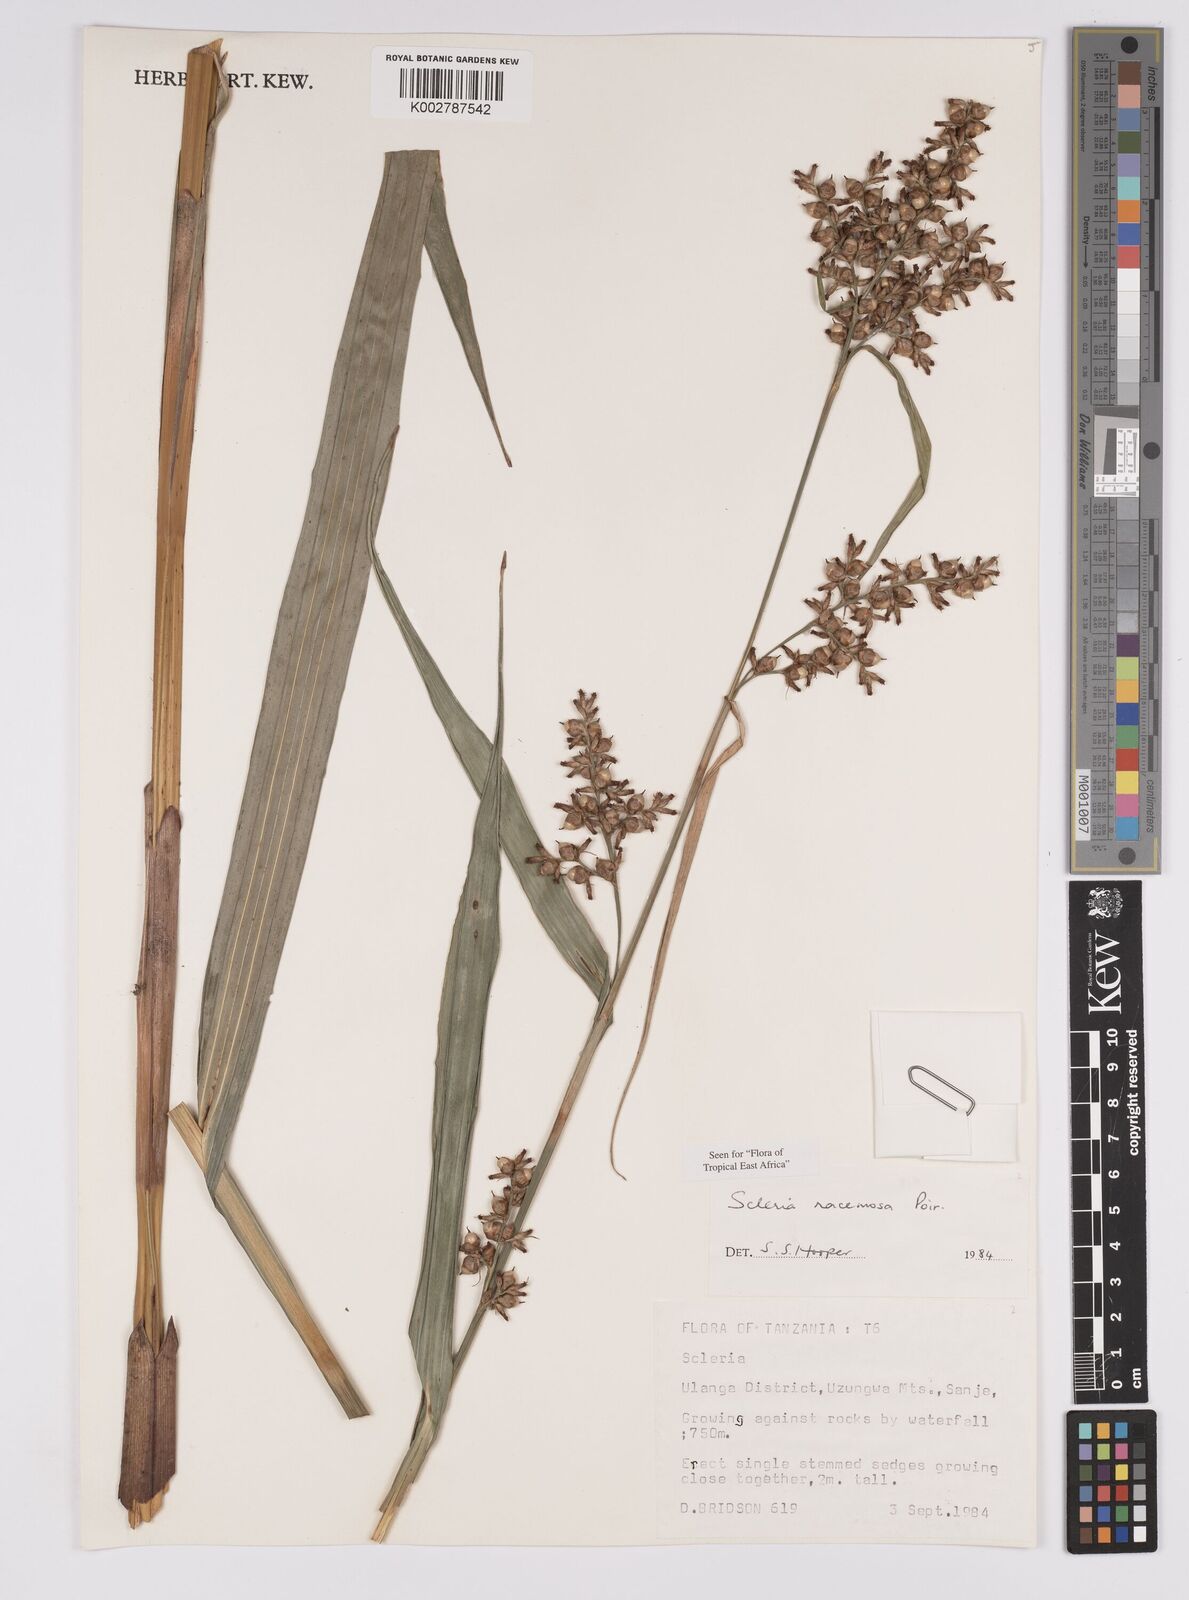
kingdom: Plantae
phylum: Tracheophyta
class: Liliopsida
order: Poales
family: Cyperaceae
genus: Scleria
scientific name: Scleria racemosa
